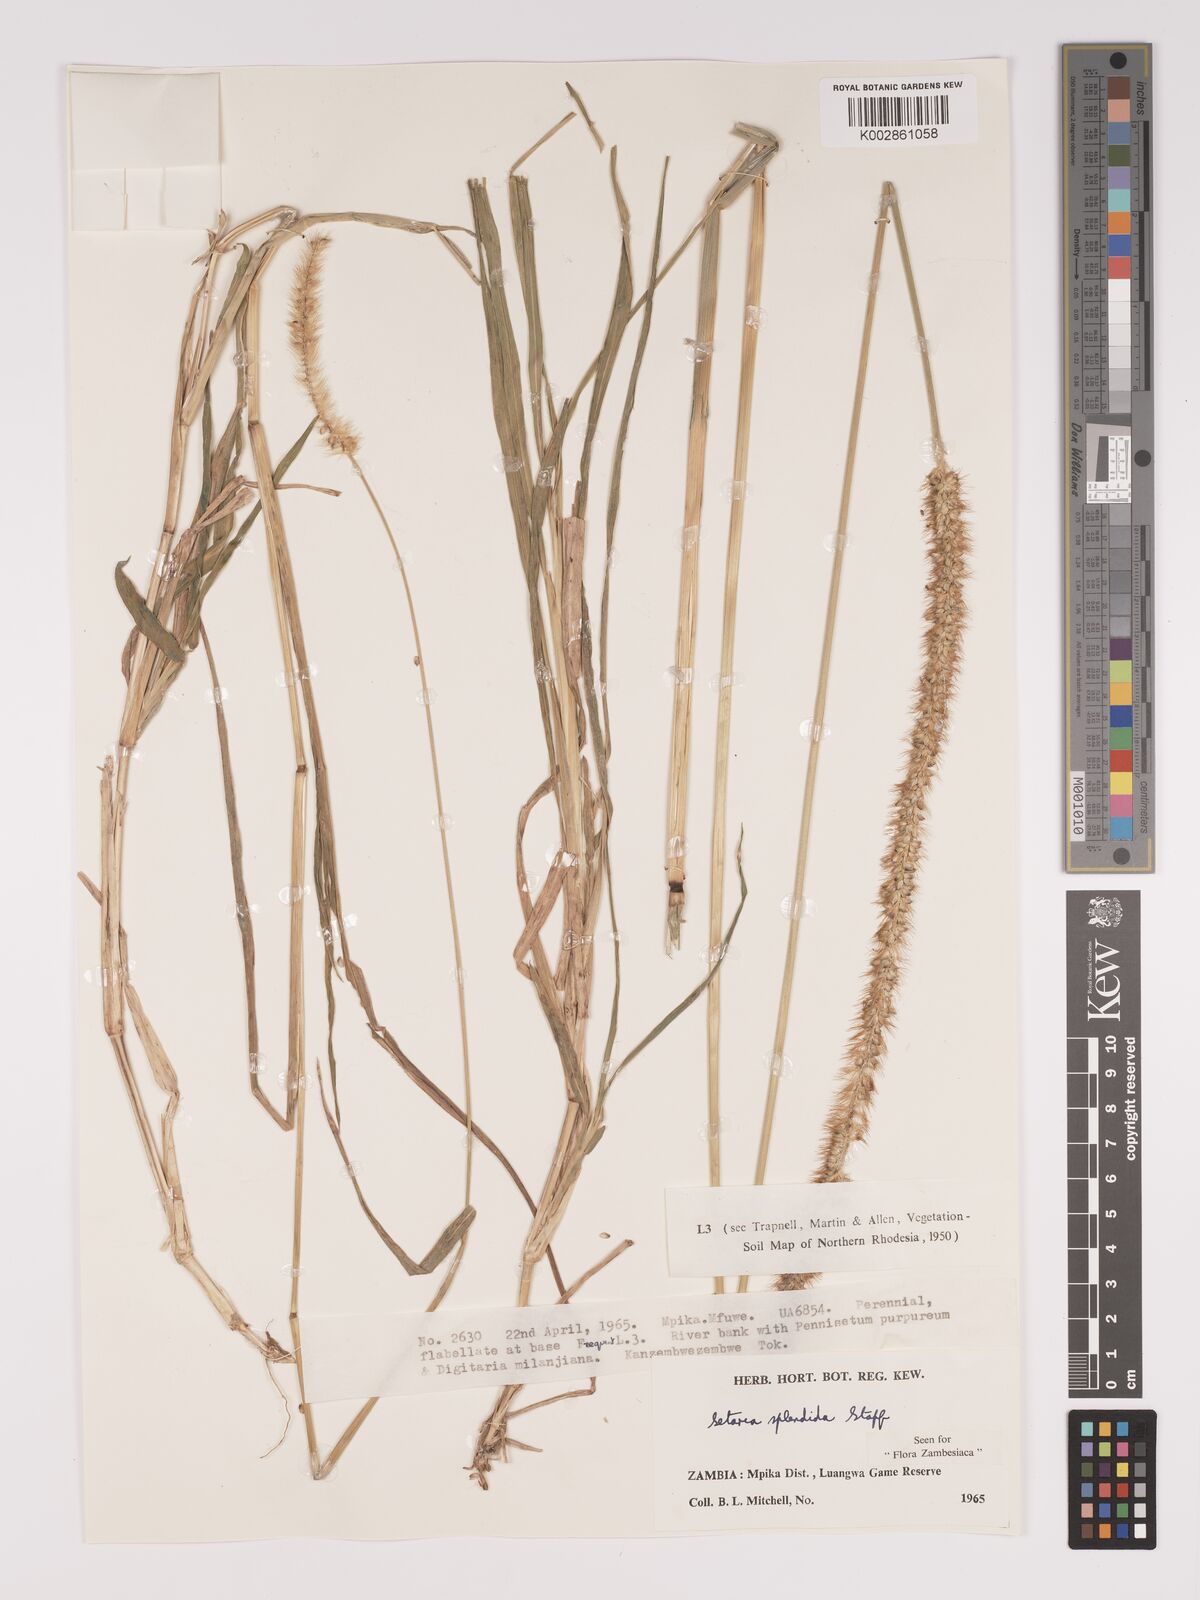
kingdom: Plantae
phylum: Tracheophyta
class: Liliopsida
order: Poales
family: Poaceae
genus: Setaria
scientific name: Setaria sphacelata
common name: African bristlegrass
